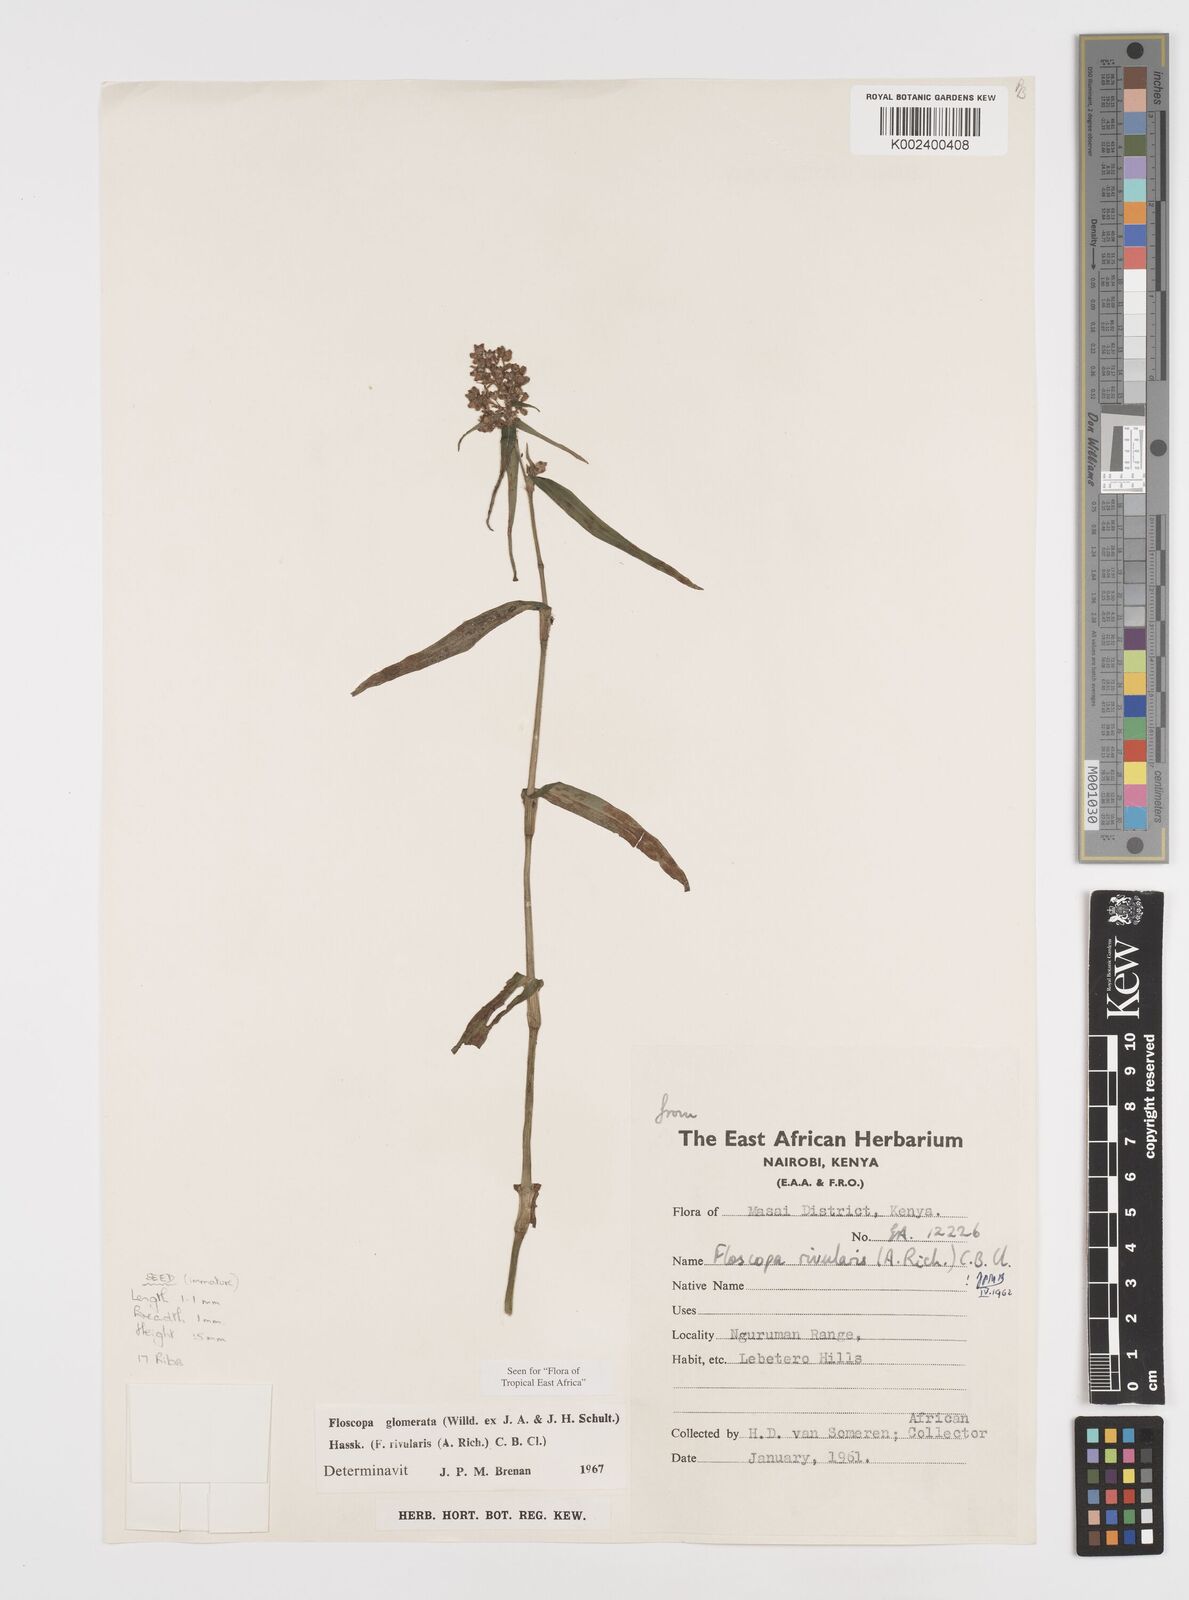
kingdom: Plantae
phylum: Tracheophyta
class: Liliopsida
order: Commelinales
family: Commelinaceae
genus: Floscopa
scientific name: Floscopa glomerata
